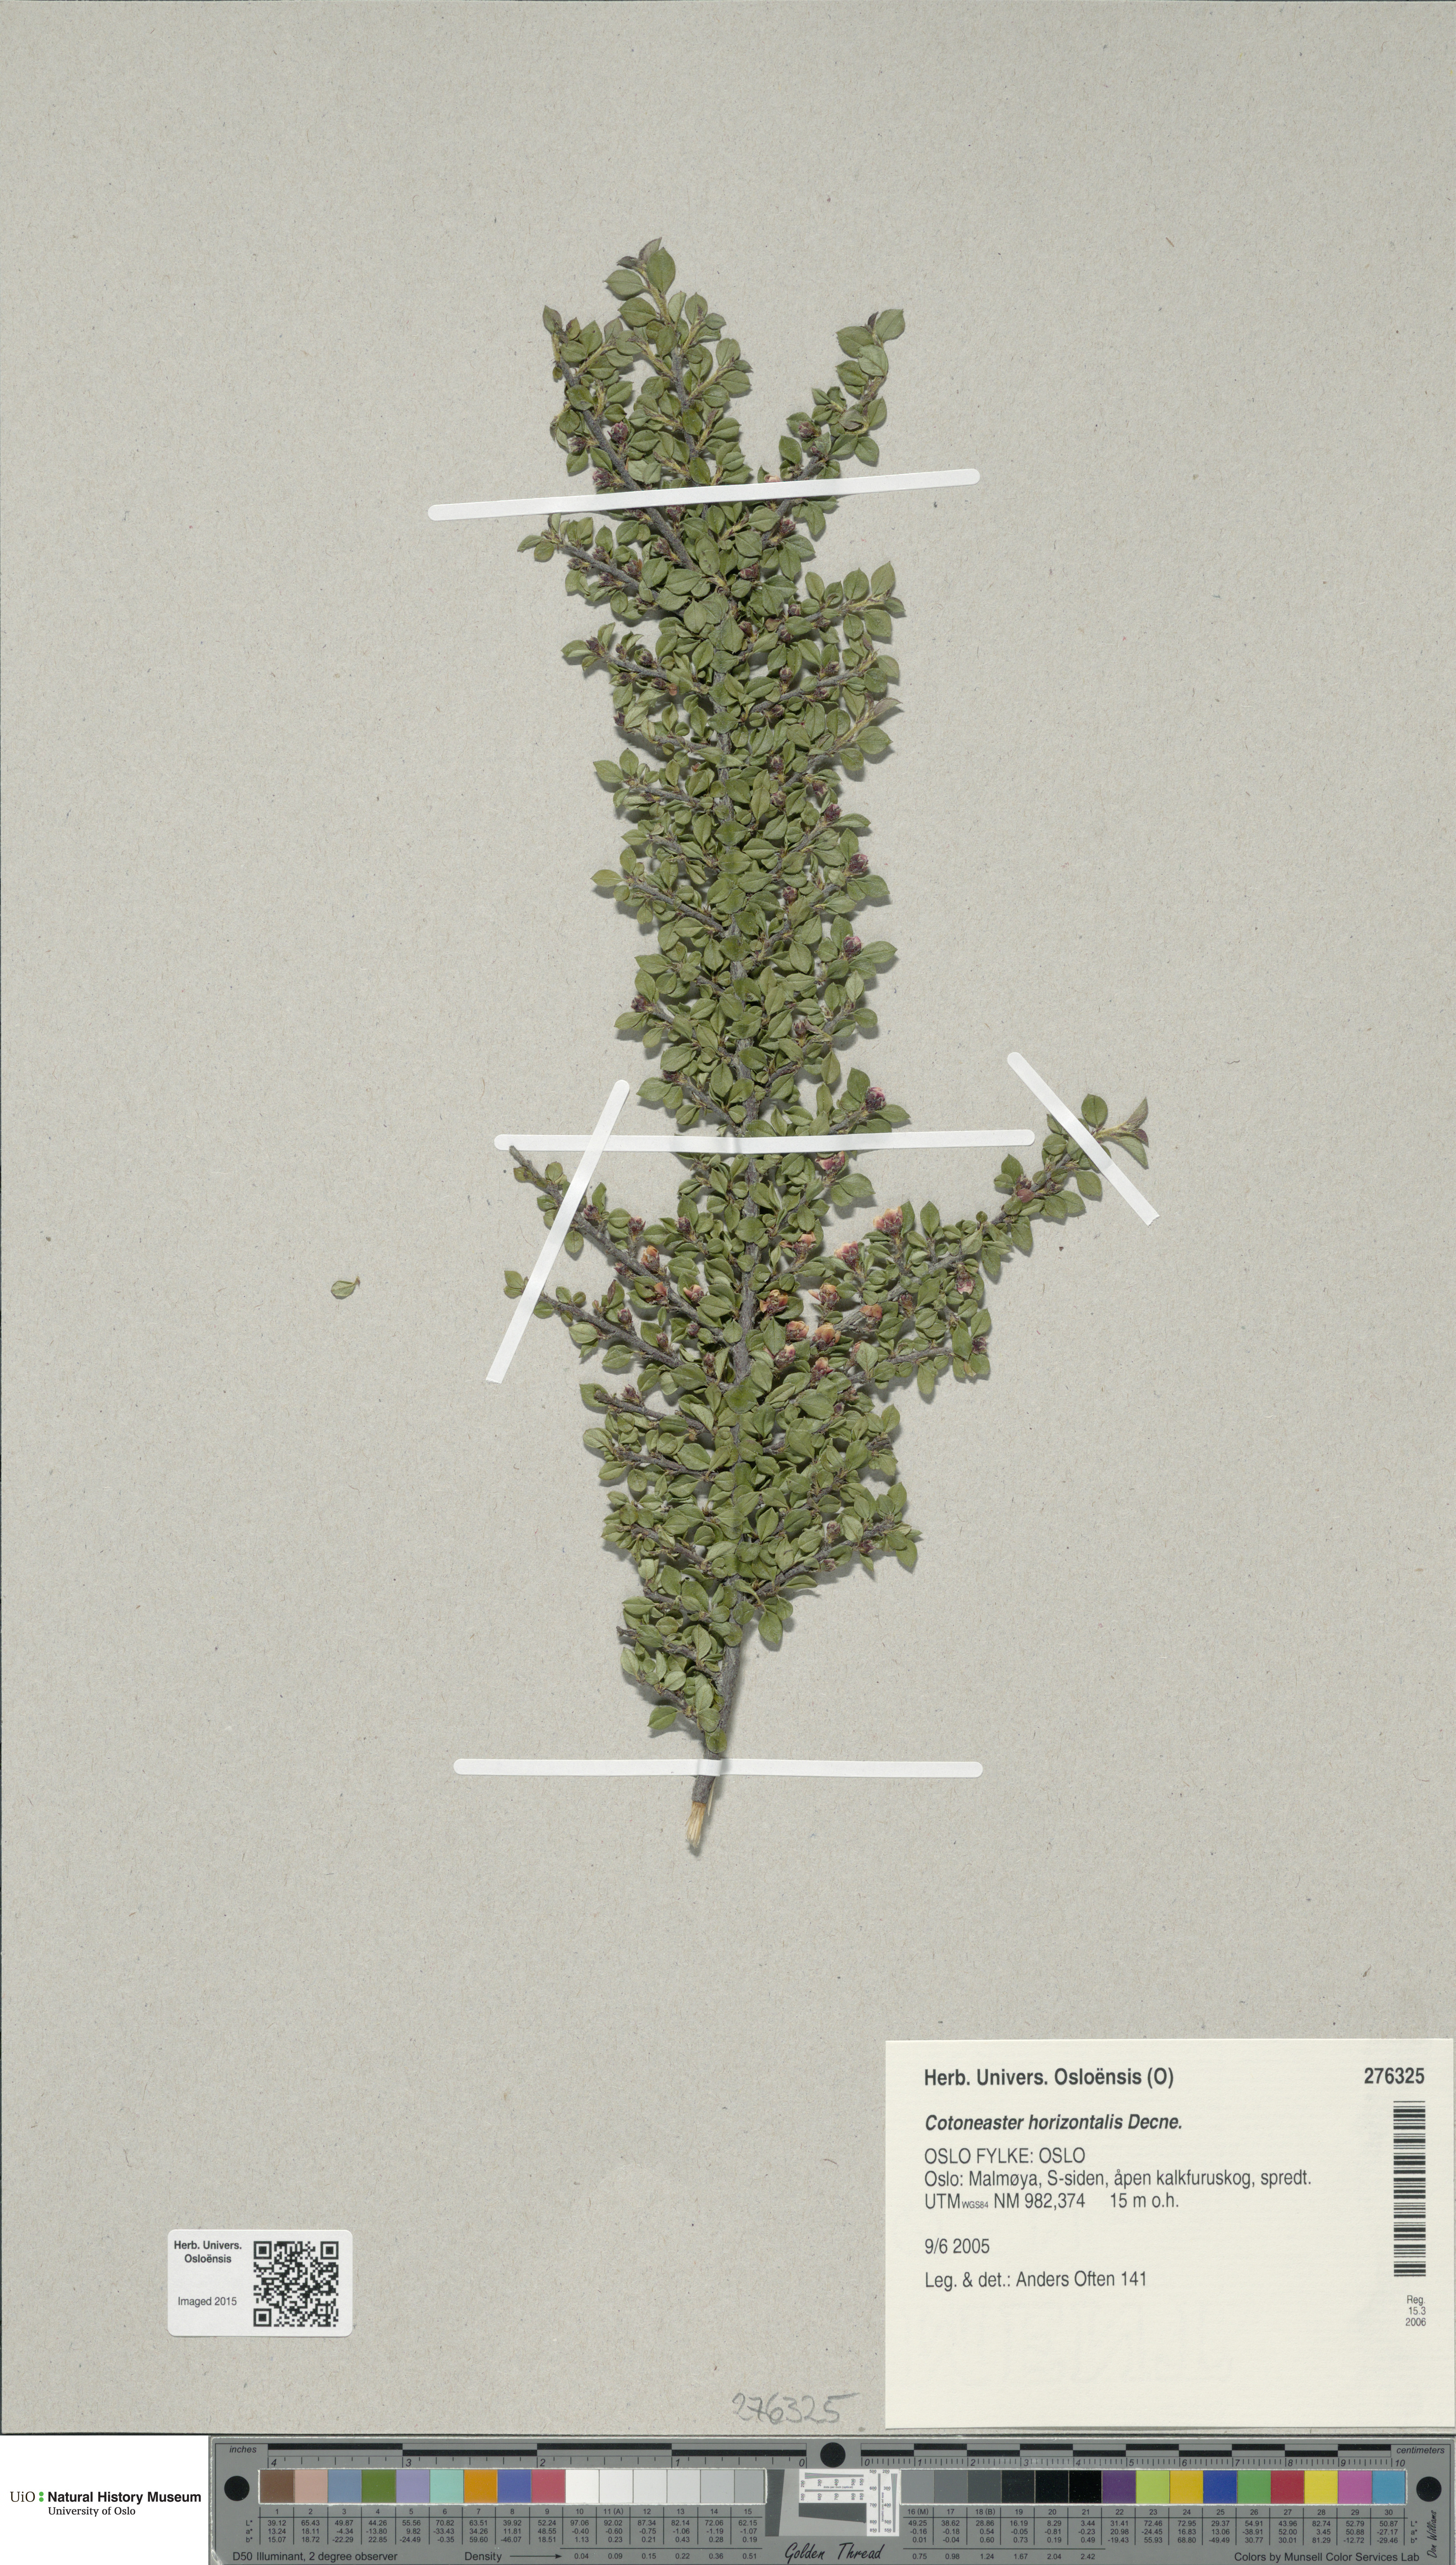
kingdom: Plantae
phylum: Tracheophyta
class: Magnoliopsida
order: Rosales
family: Rosaceae
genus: Cotoneaster
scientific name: Cotoneaster horizontalis
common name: Wall cotoneaster
